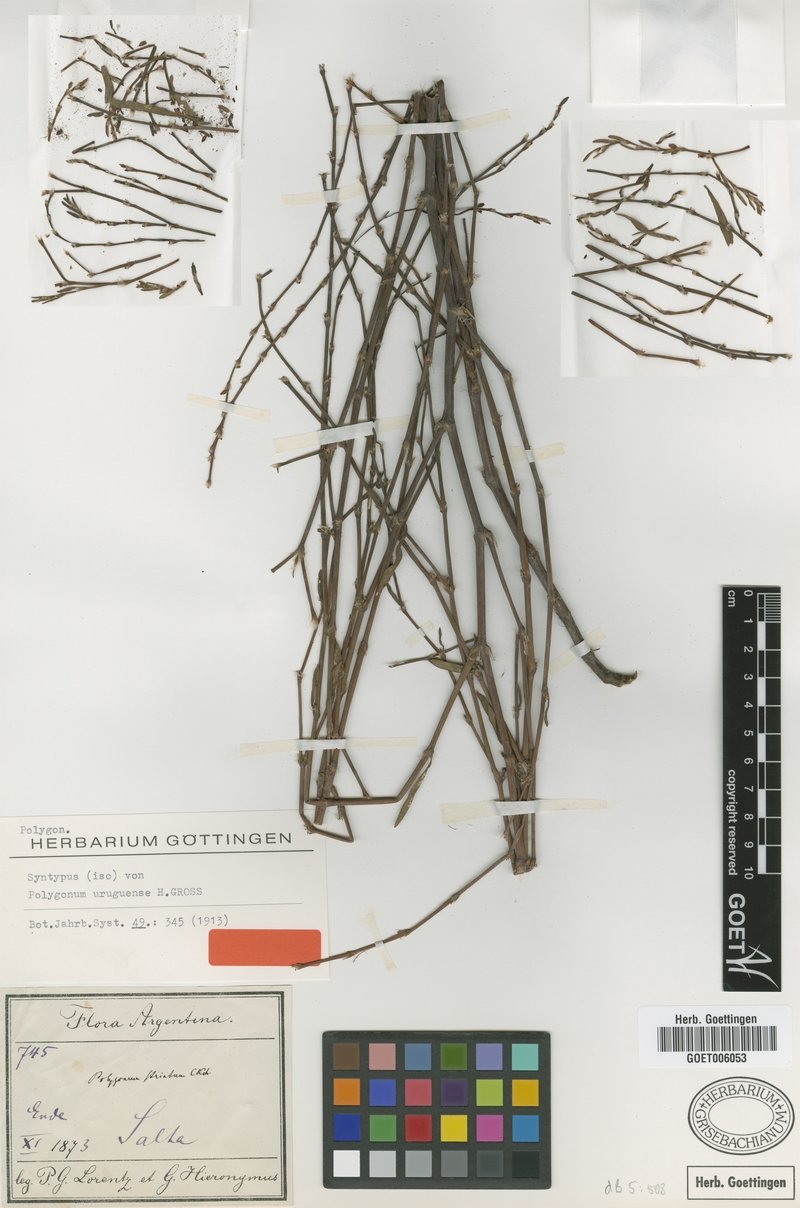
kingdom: Plantae
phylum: Tracheophyta
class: Magnoliopsida
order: Caryophyllales
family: Polygonaceae
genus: Polygonum
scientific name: Polygonum aviculare
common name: Prostrate knotweed
